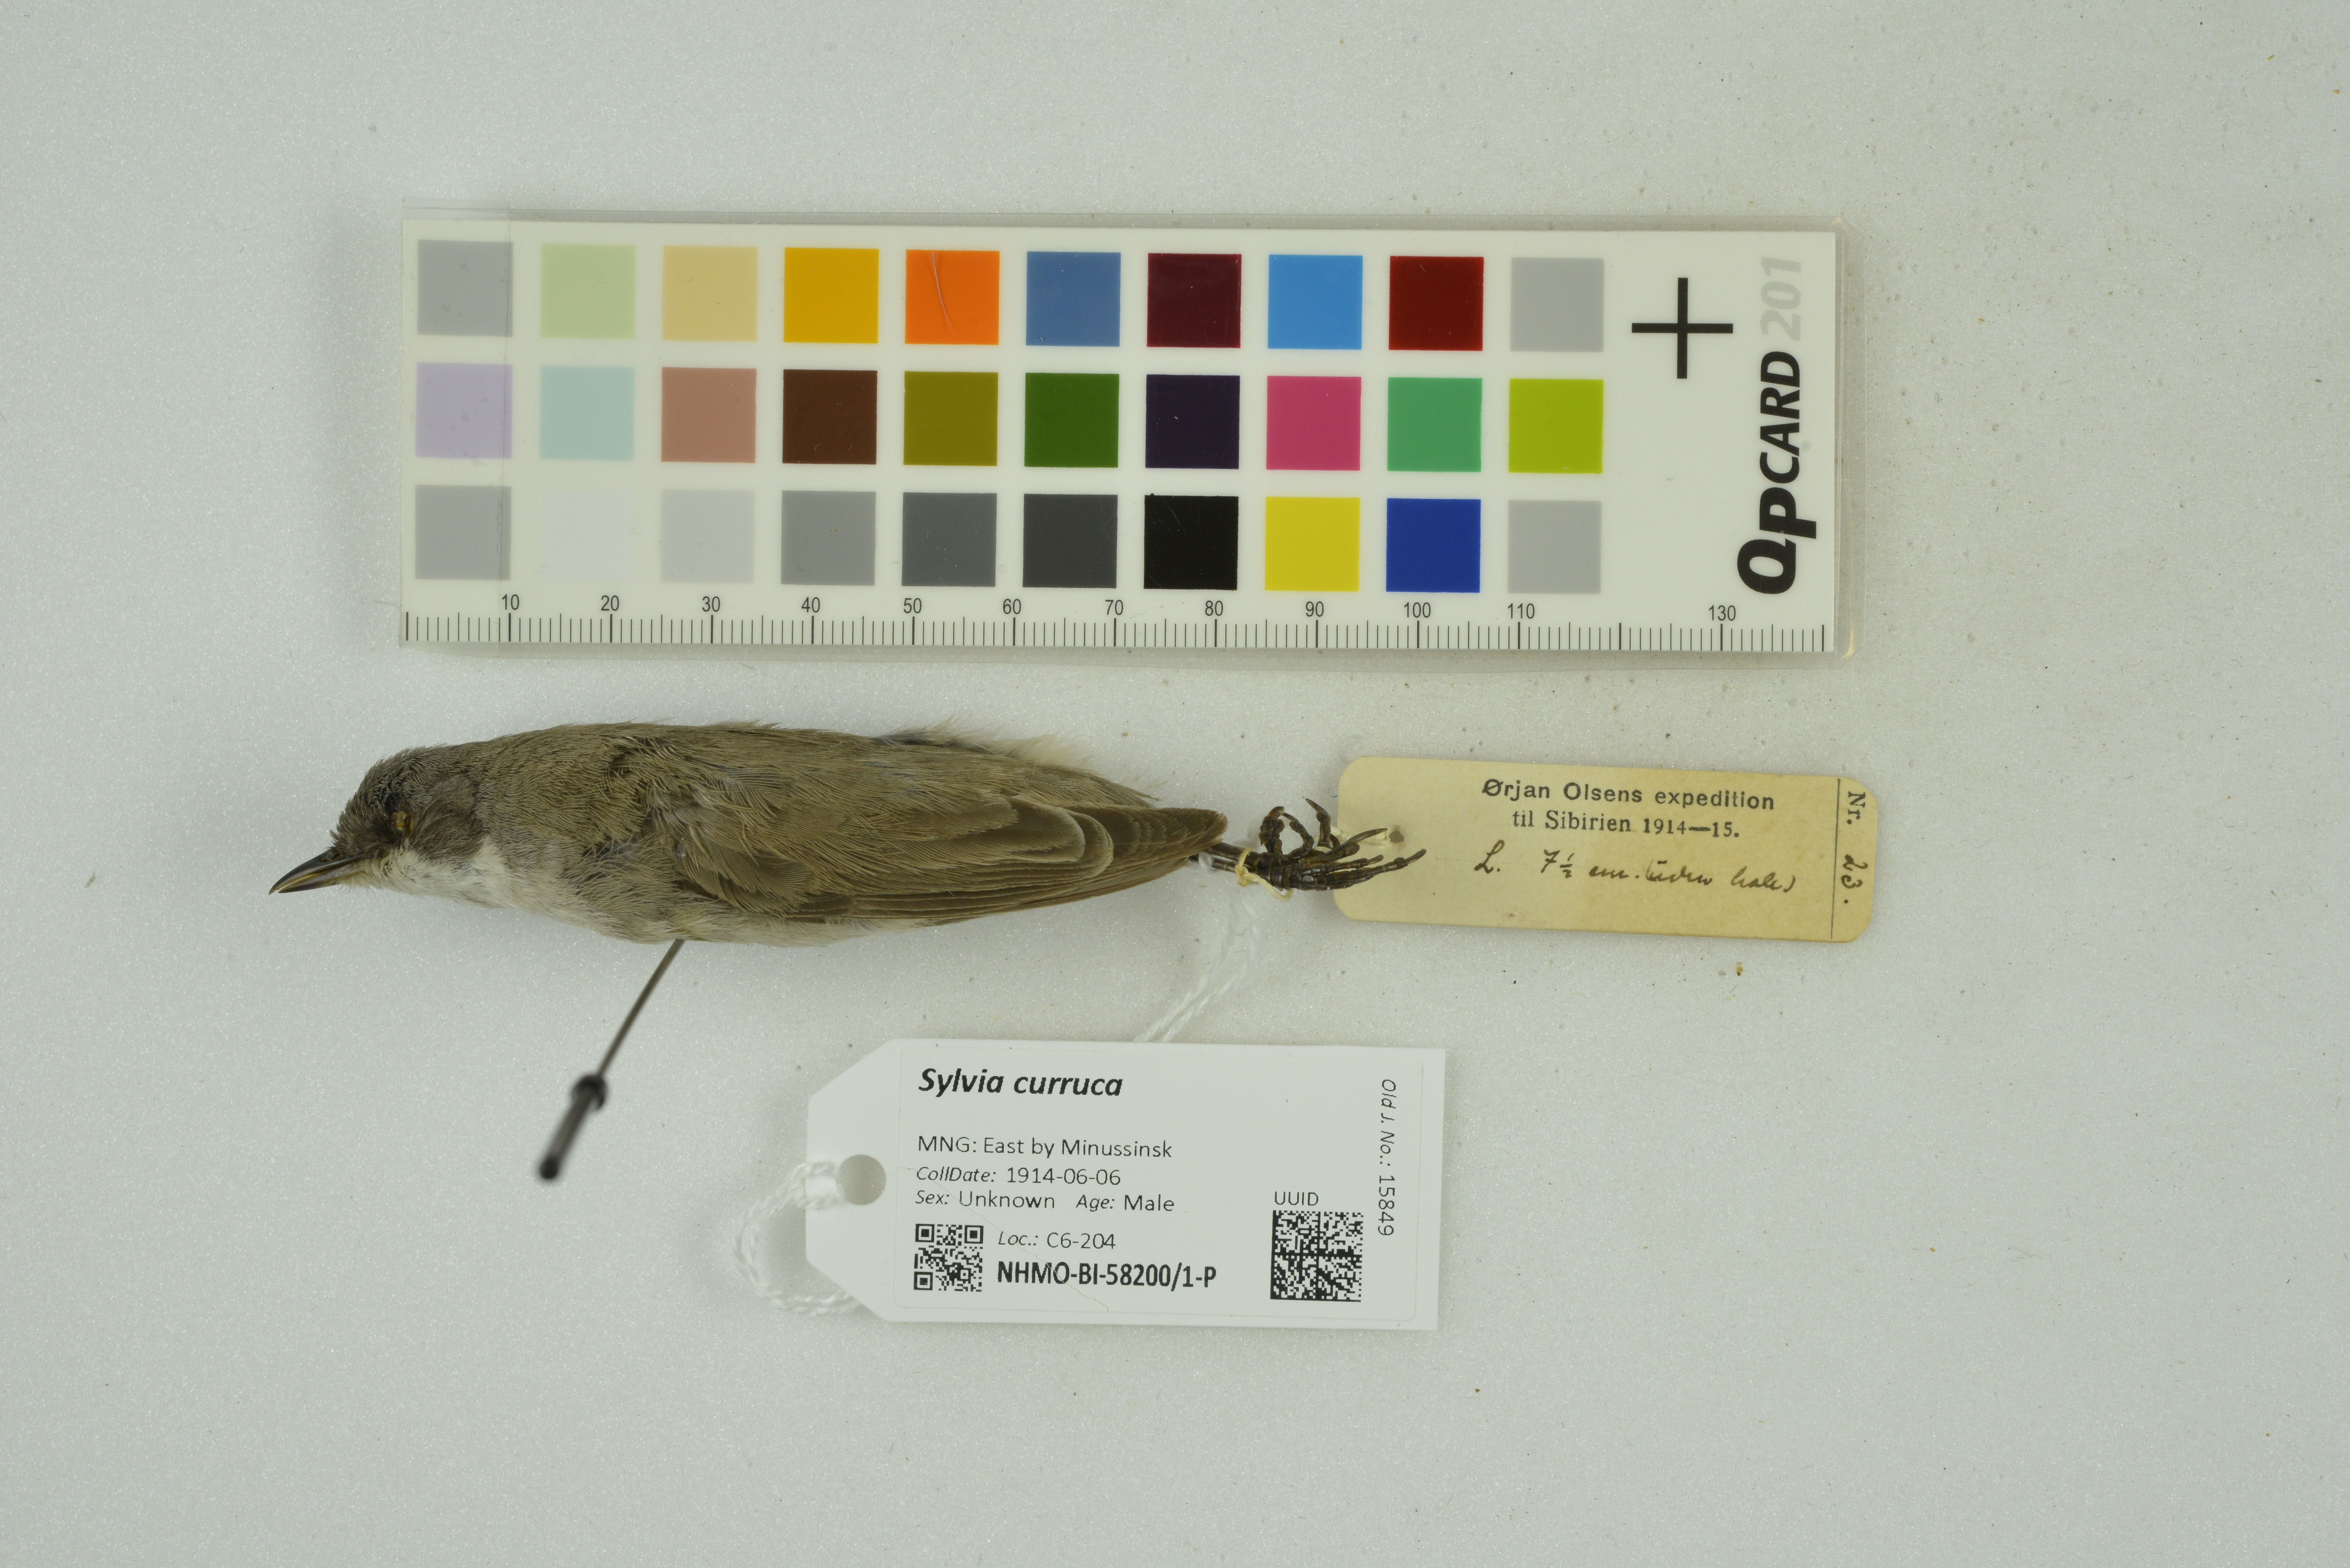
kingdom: Animalia
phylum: Chordata
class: Aves
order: Passeriformes
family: Sylviidae
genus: Sylvia
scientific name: Sylvia curruca
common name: Lesser whitethroat
